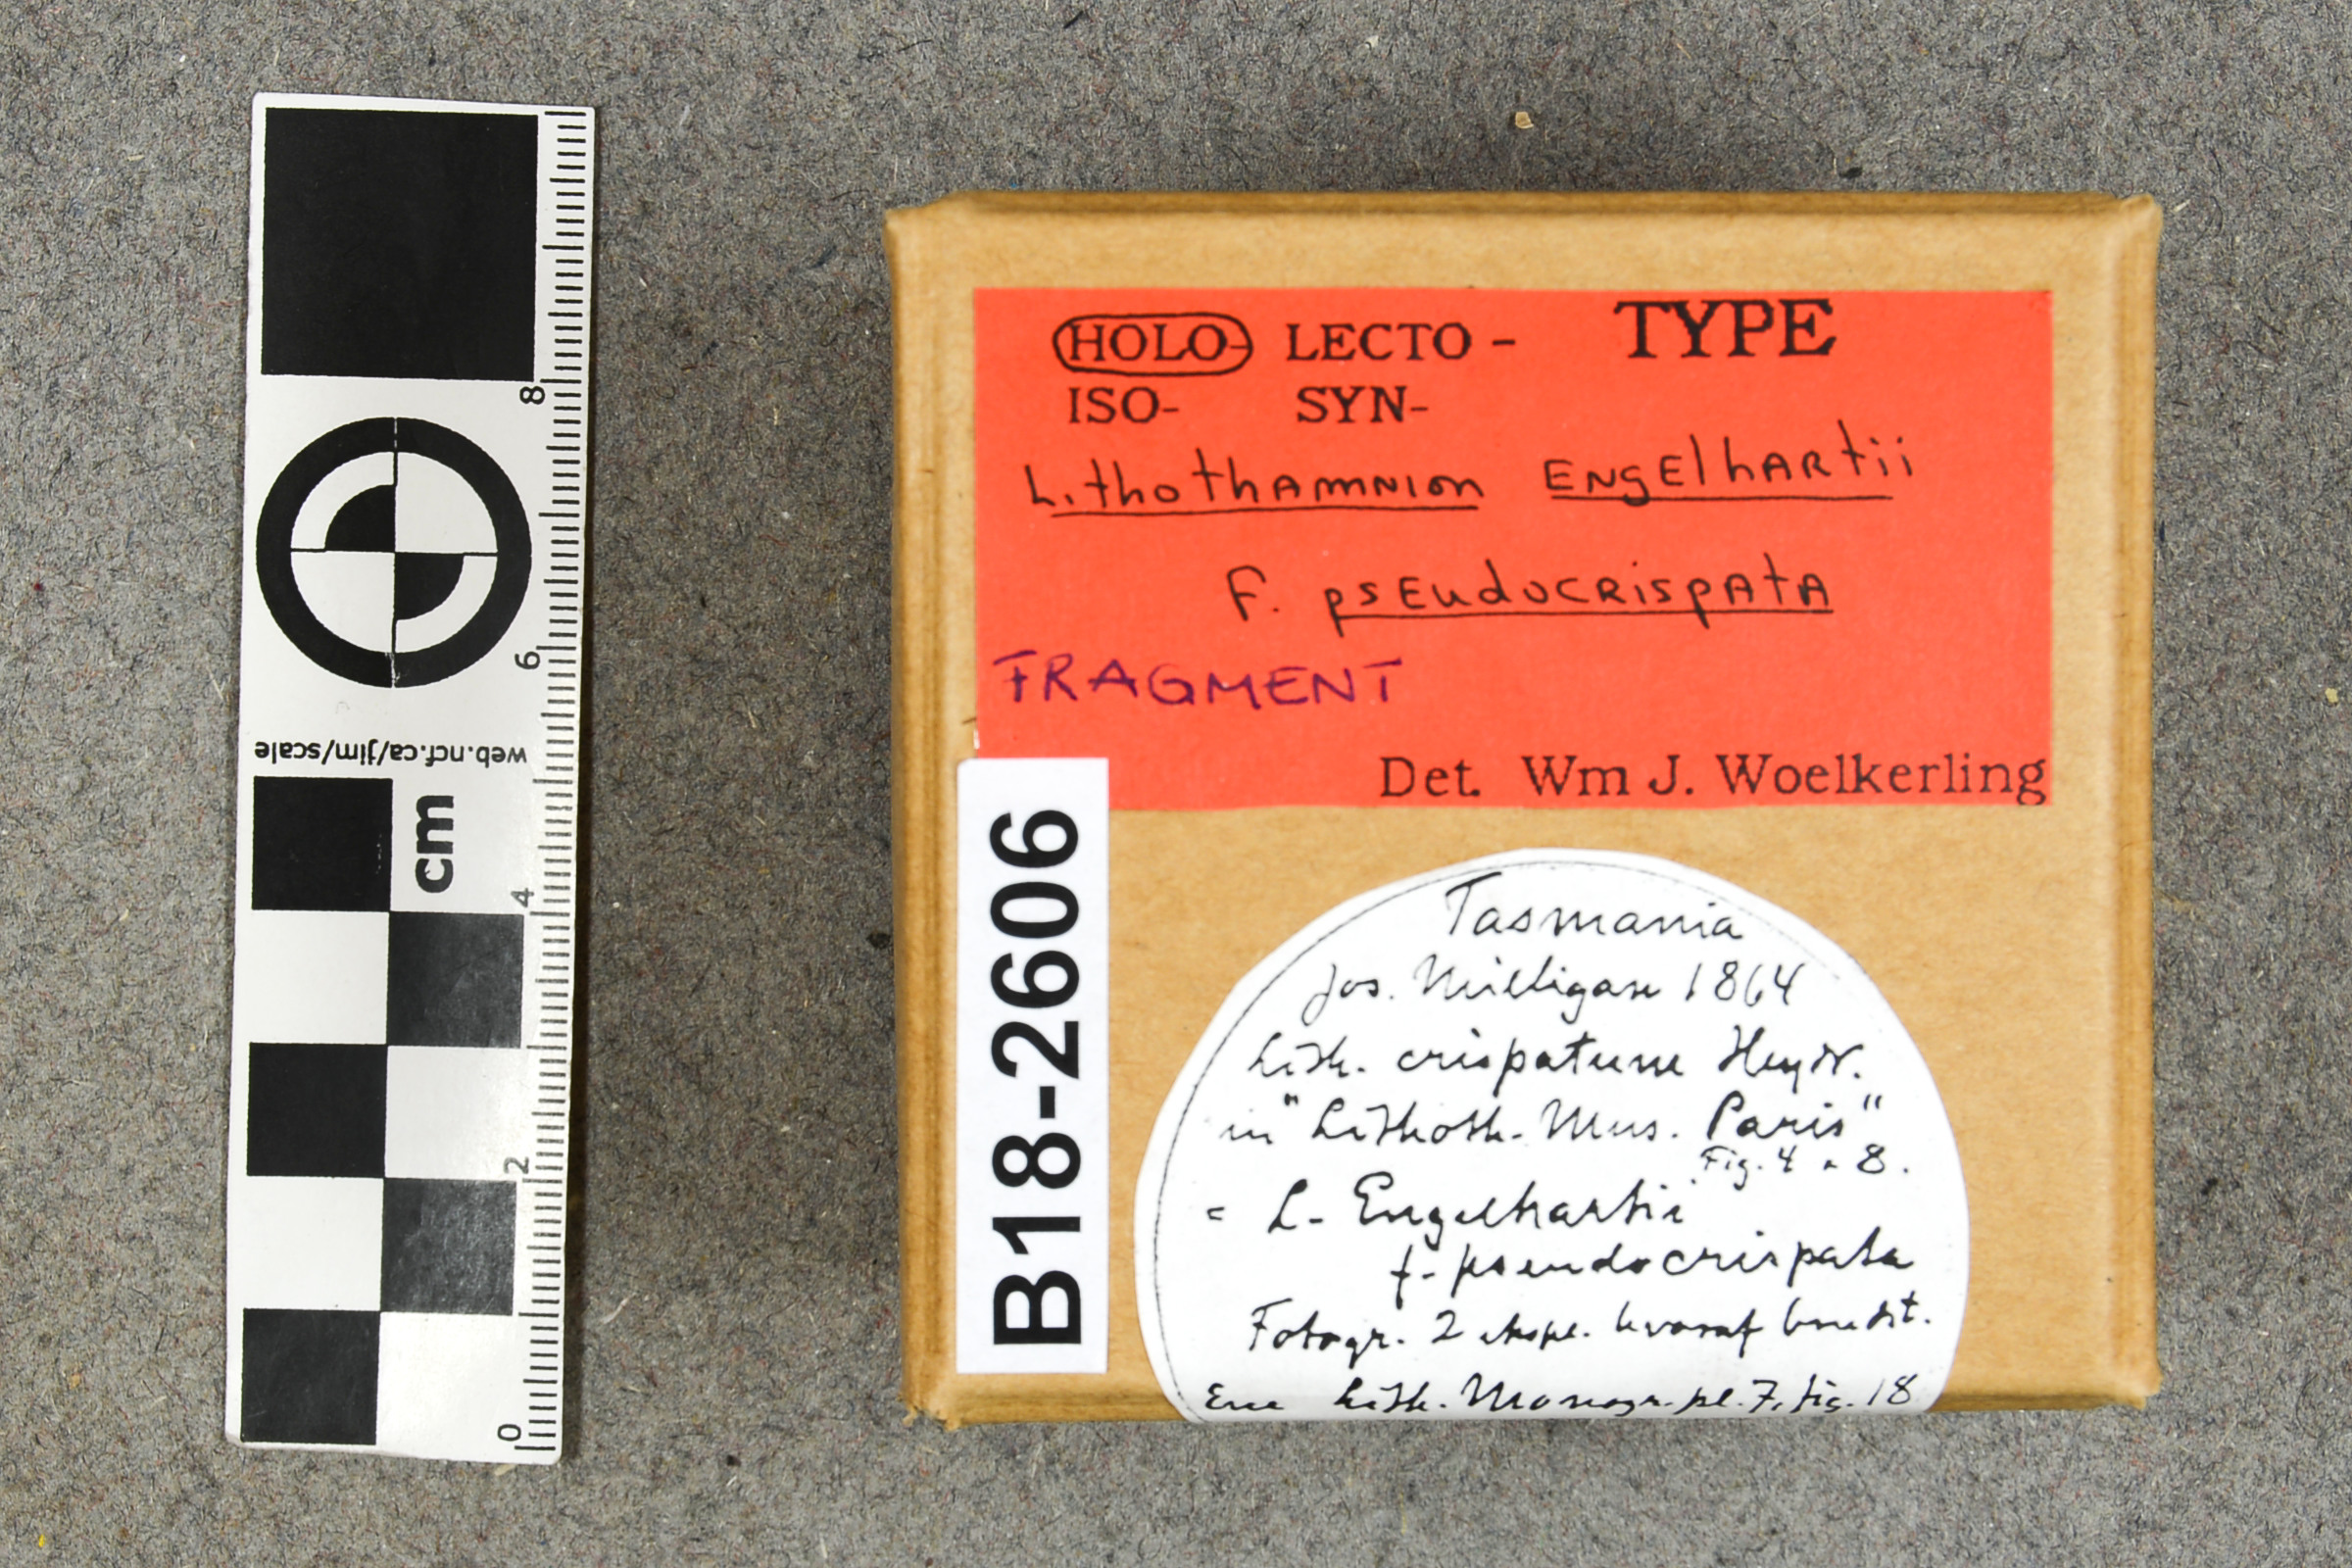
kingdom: Plantae
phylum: Rhodophyta
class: Florideophyceae
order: Corallinales
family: Mesophyllumaceae
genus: Mesophyllum
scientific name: Mesophyllum engelhartii
